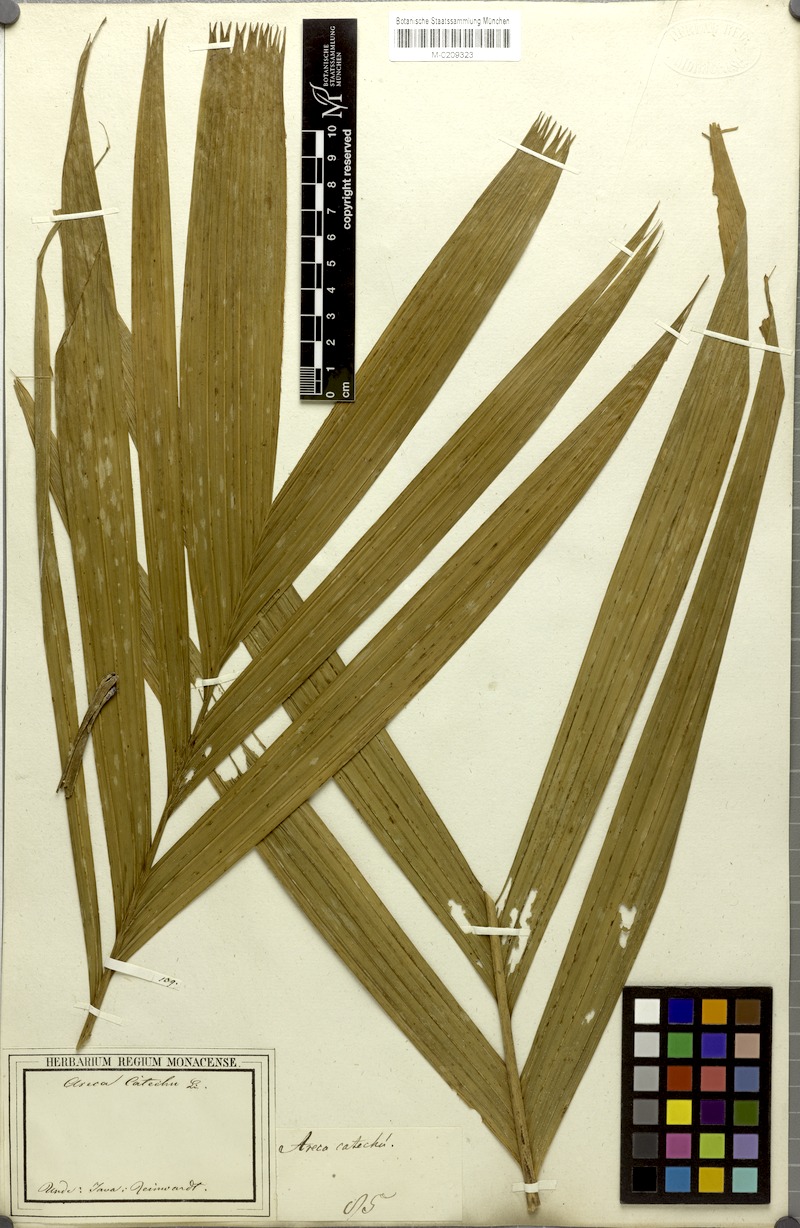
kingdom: Plantae
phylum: Tracheophyta
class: Liliopsida
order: Arecales
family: Arecaceae
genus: Areca
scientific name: Areca catechu
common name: Indian-nut
